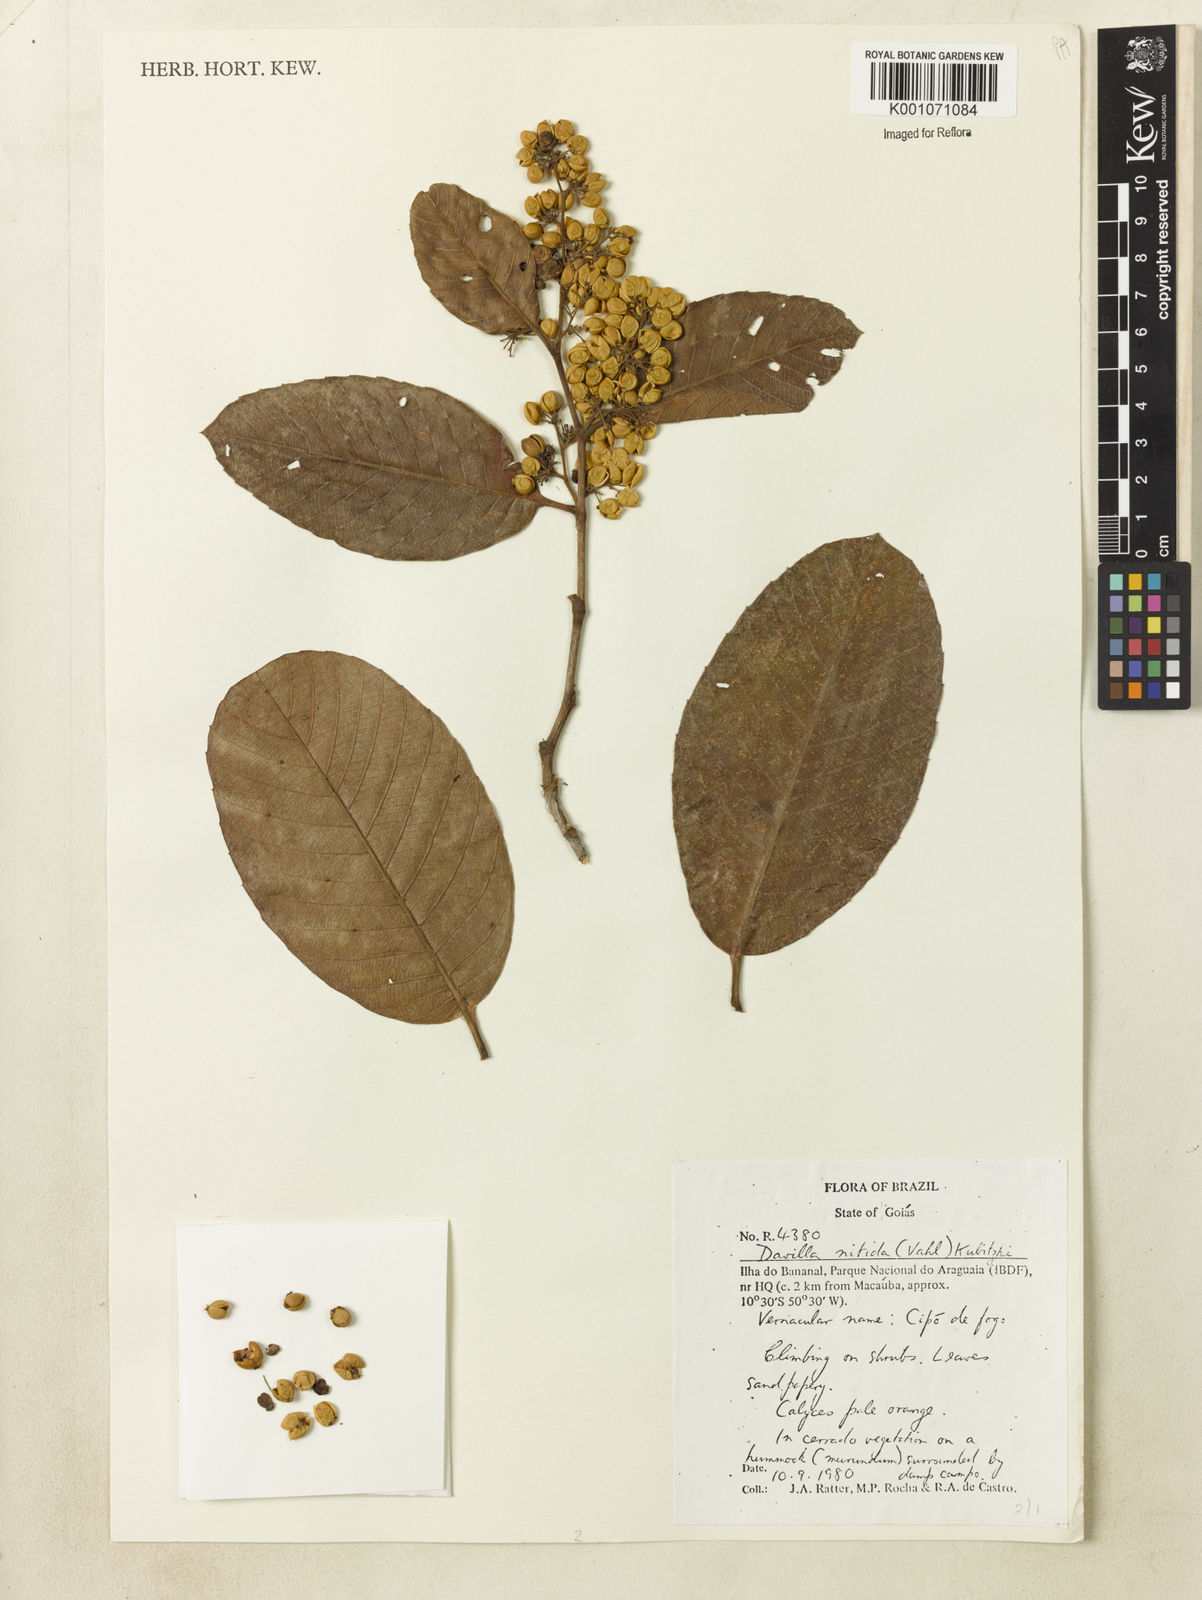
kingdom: Plantae
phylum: Tracheophyta
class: Magnoliopsida
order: Dilleniales
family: Dilleniaceae
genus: Davilla
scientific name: Davilla nitida
